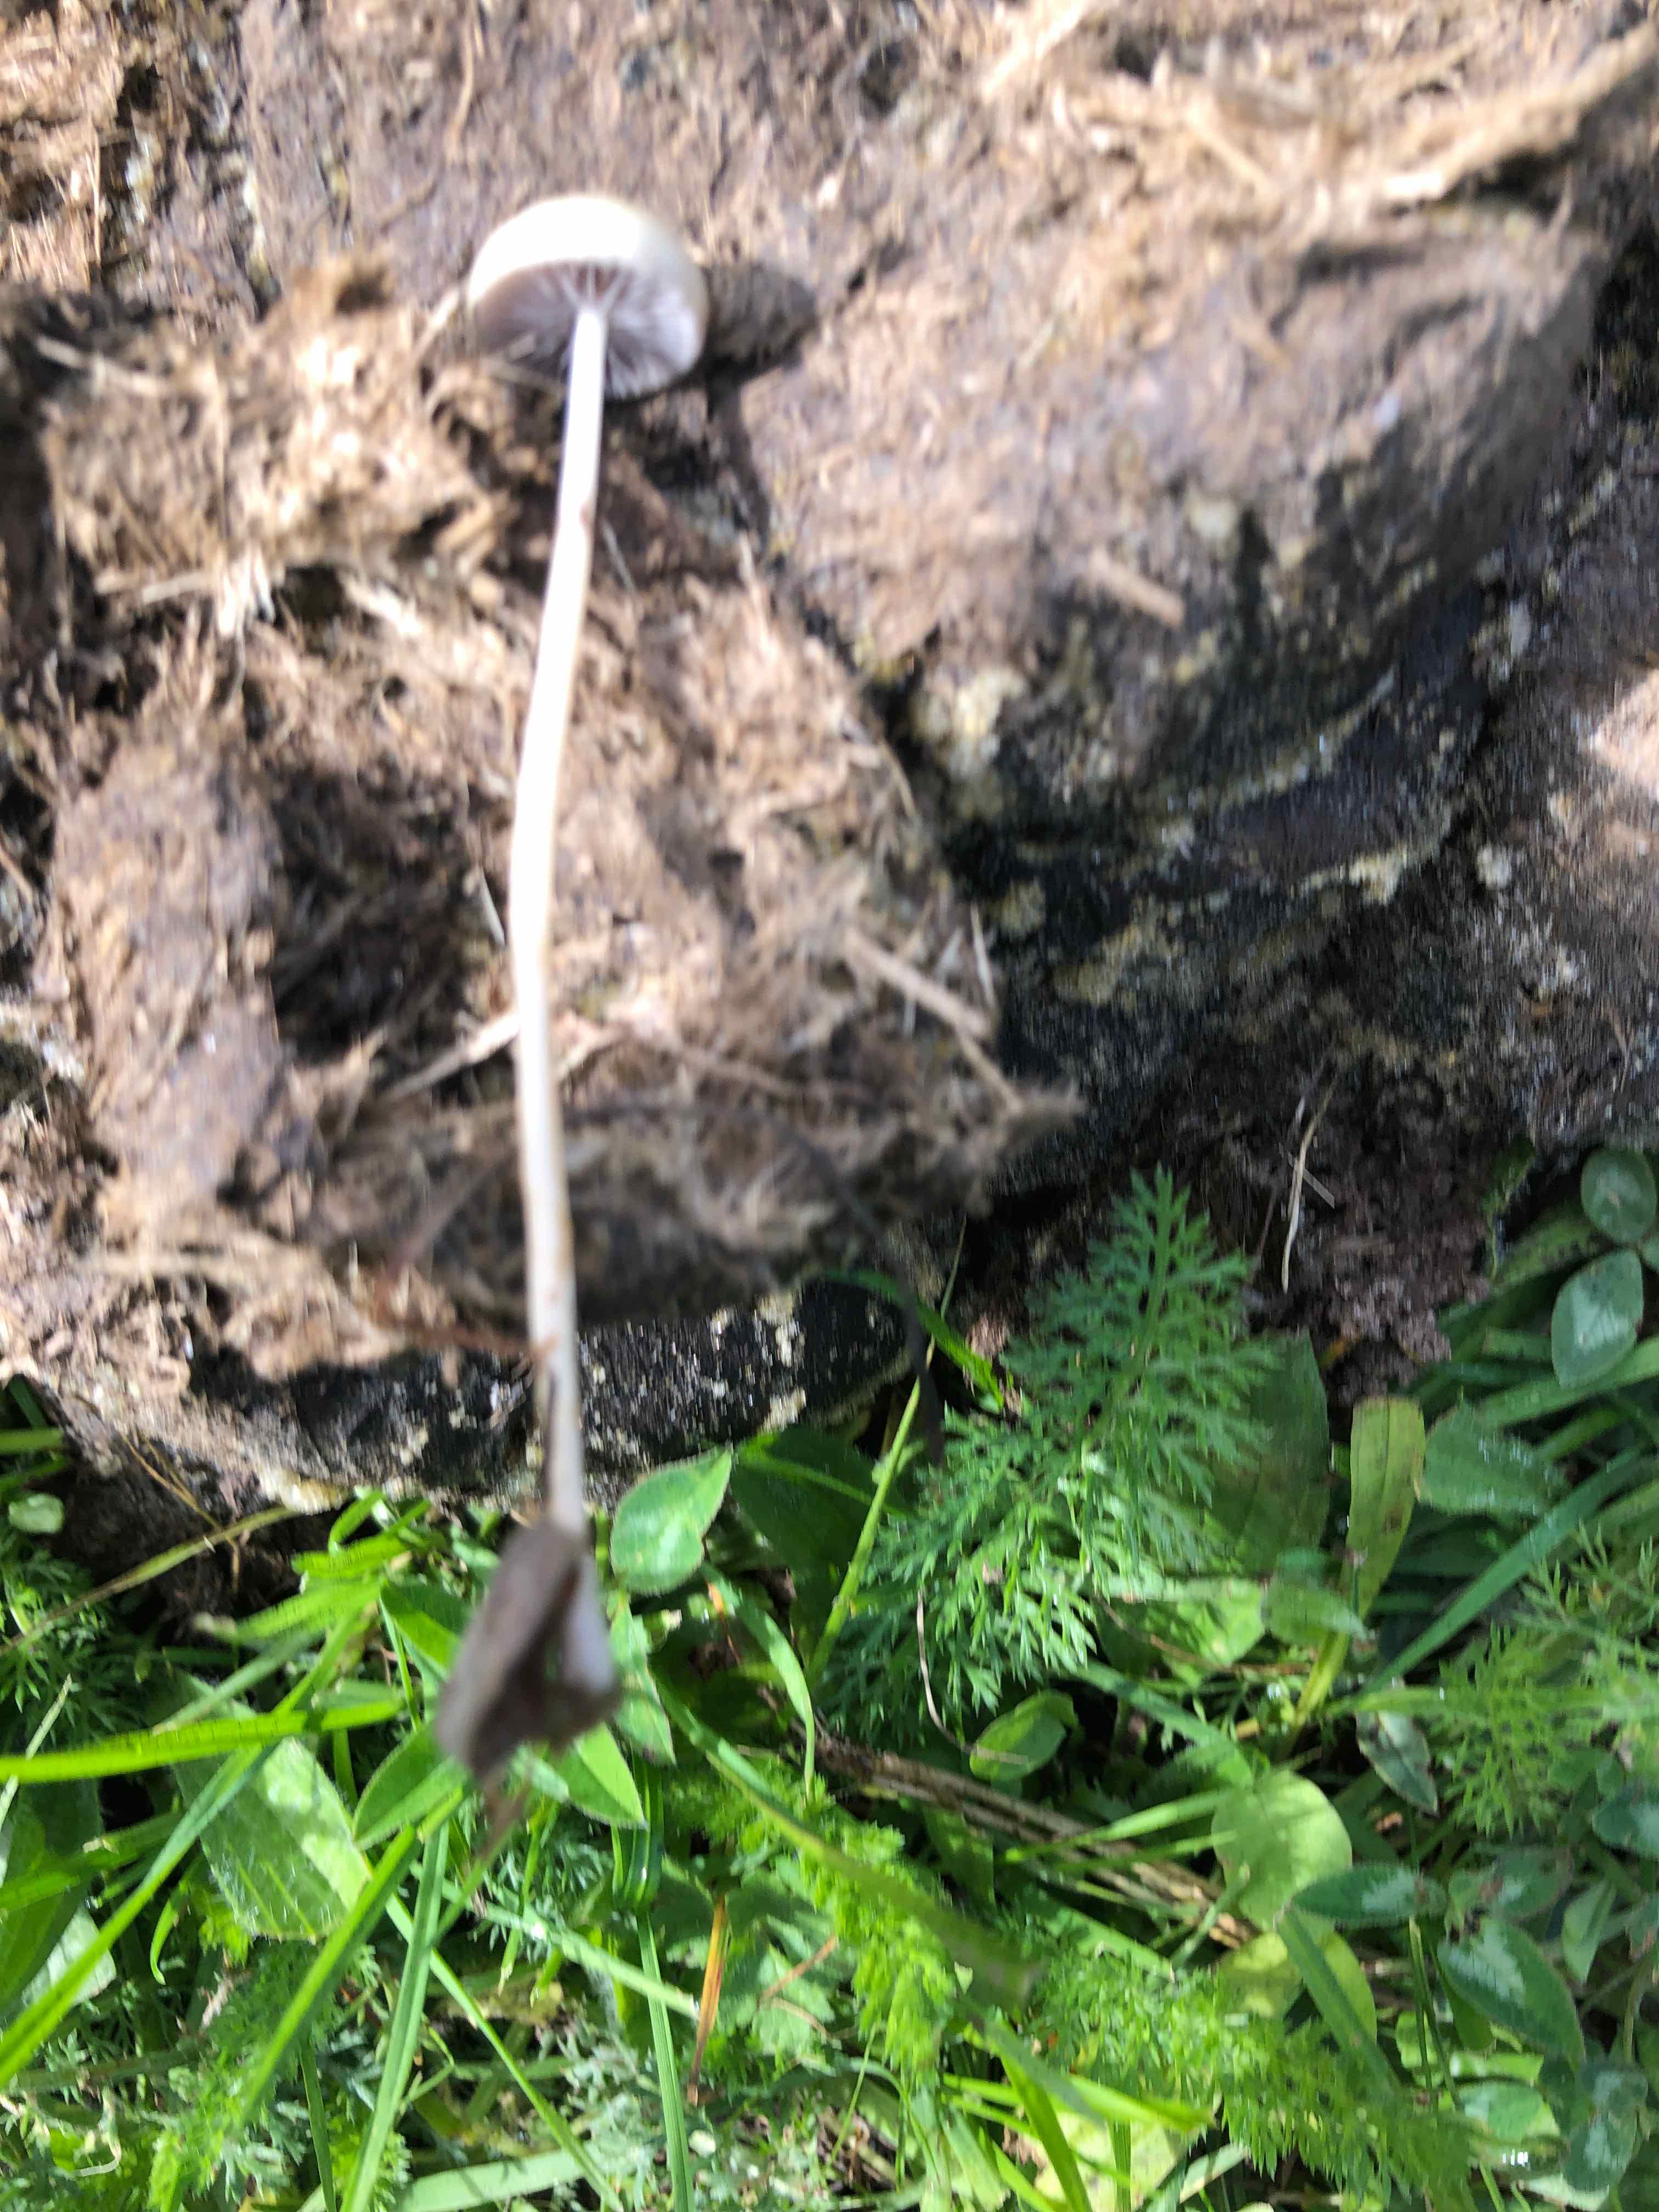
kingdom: Fungi
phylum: Basidiomycota
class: Agaricomycetes
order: Agaricales
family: Strophariaceae
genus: Protostropharia
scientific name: Protostropharia semiglobata
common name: halvkugleformet bredblad
